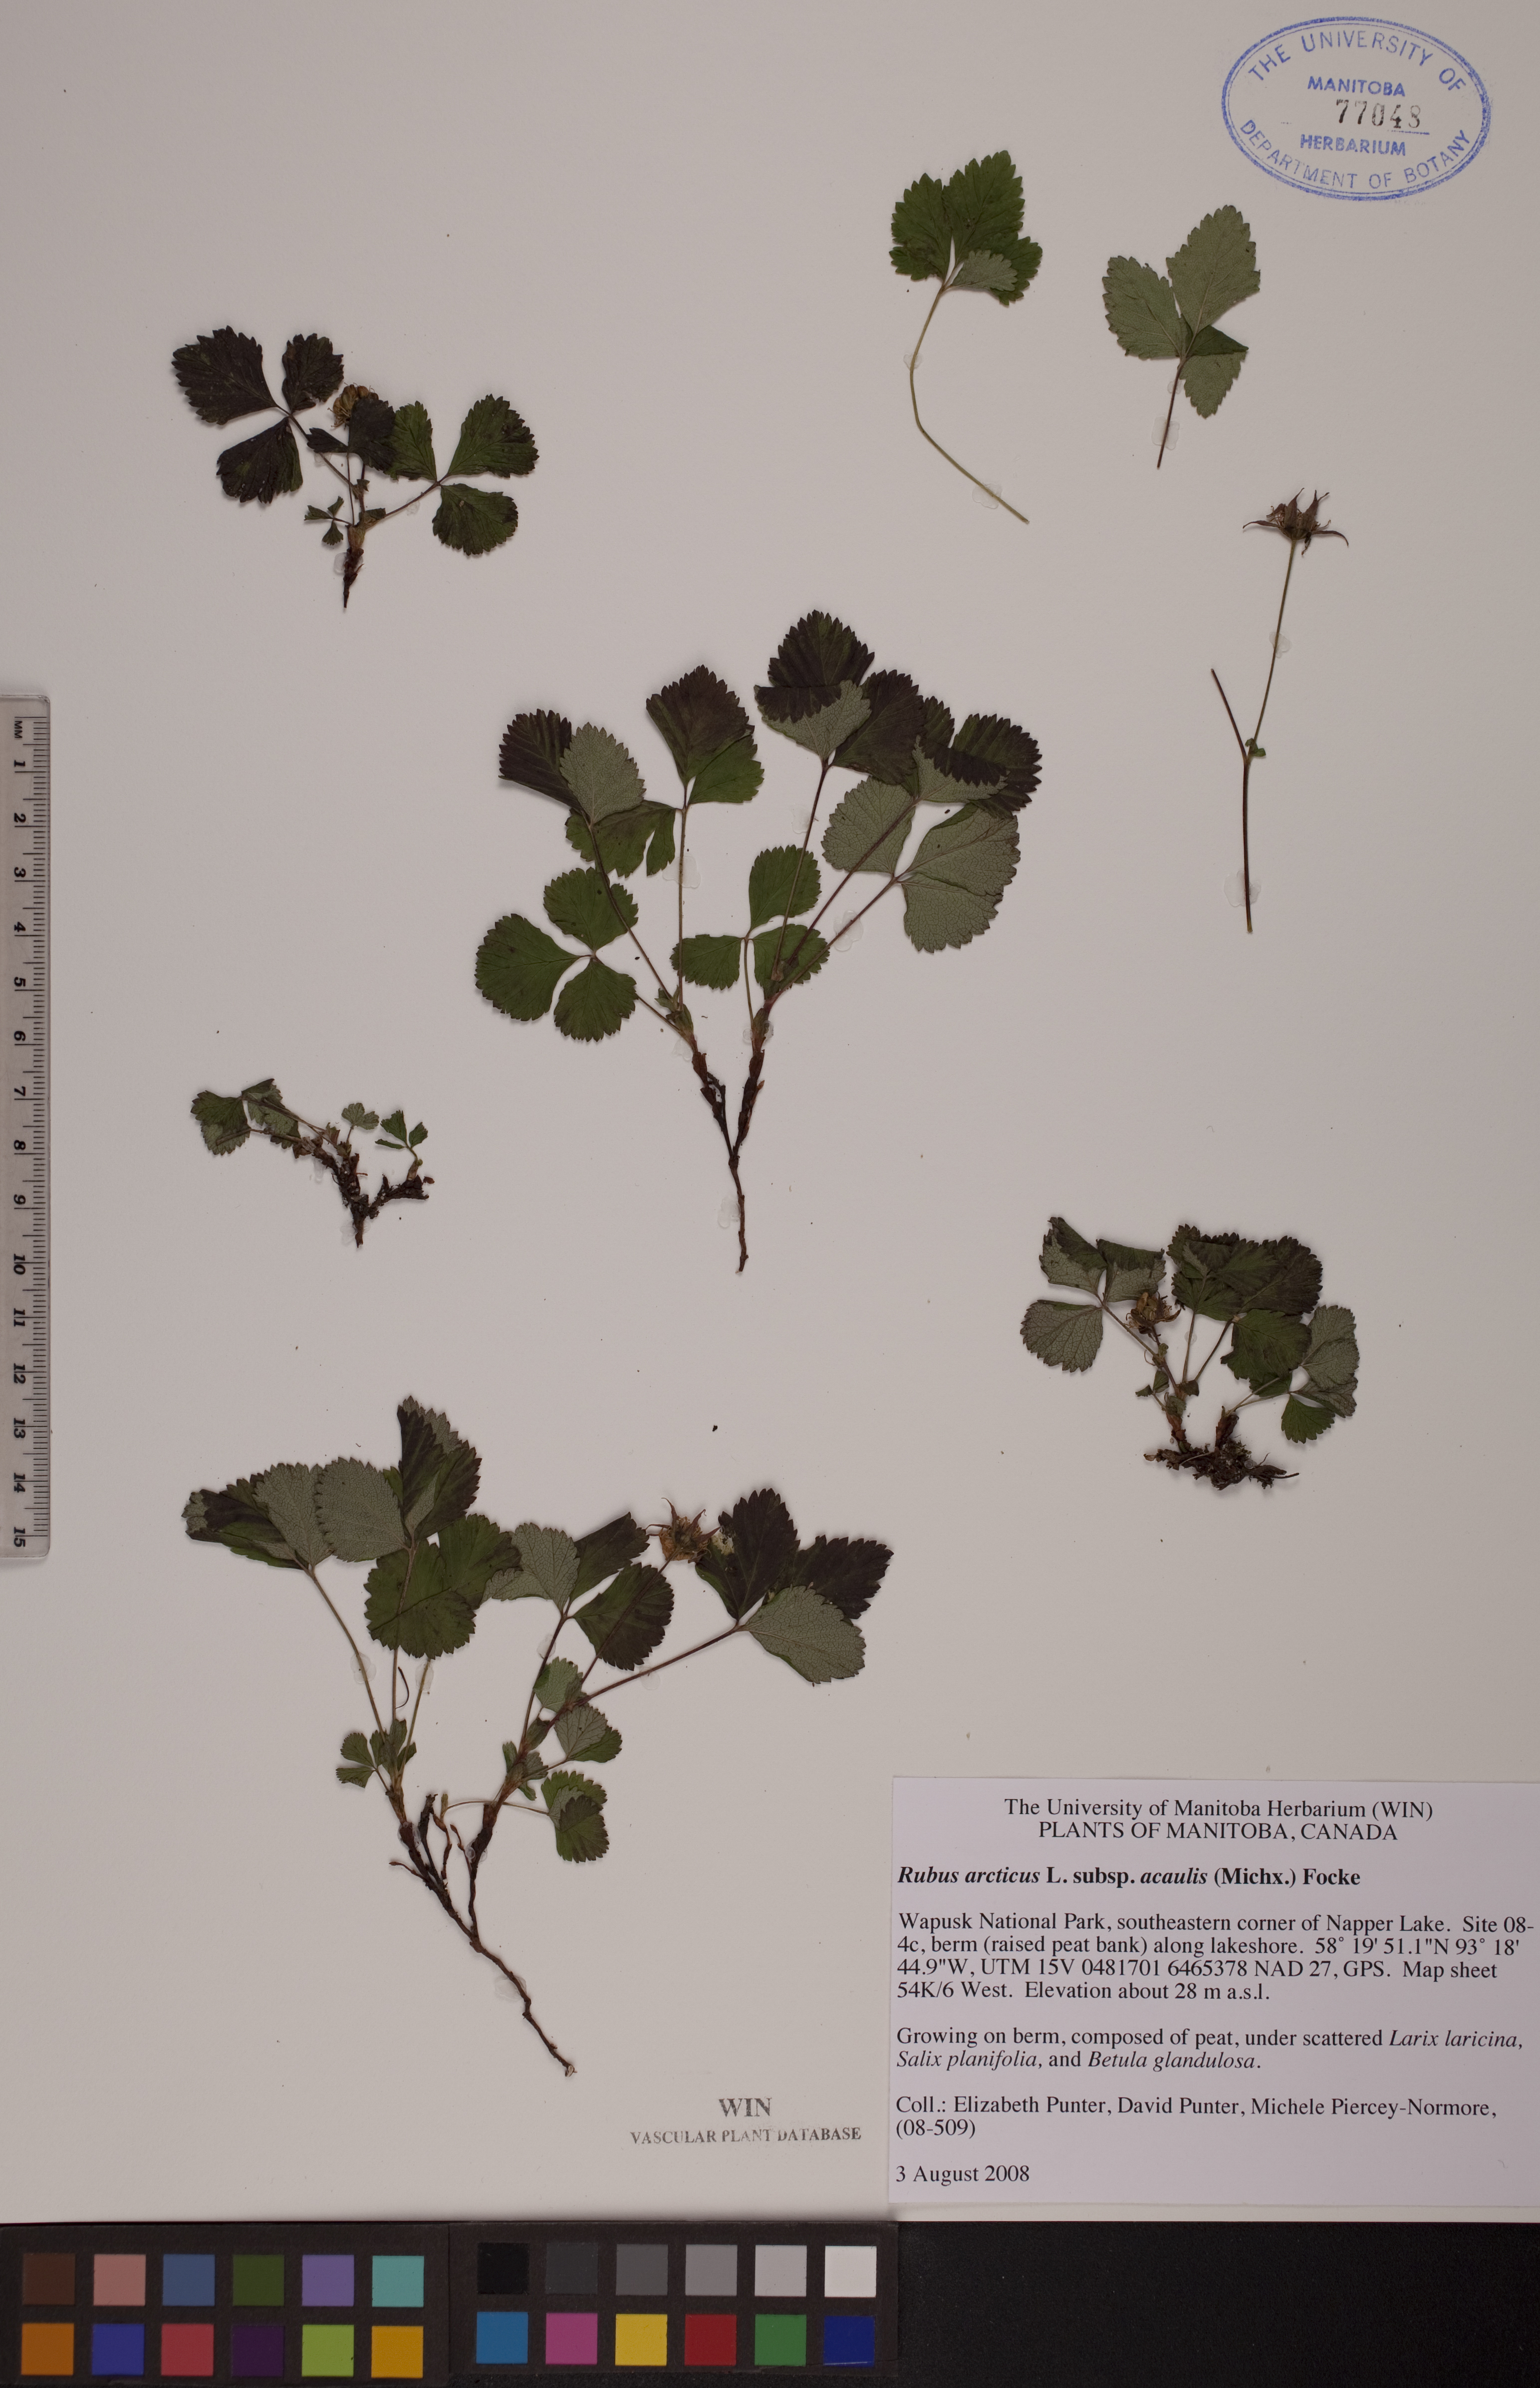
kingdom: Plantae
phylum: Tracheophyta
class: Magnoliopsida
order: Rosales
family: Rosaceae
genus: Rubus
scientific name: Rubus arcticus
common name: Arctic bramble
